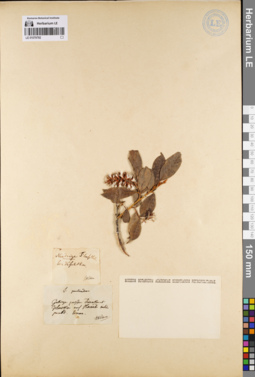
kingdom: Plantae
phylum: Tracheophyta
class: Magnoliopsida
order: Malpighiales
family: Salicaceae
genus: Salix
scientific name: Salix pseudopentandra
